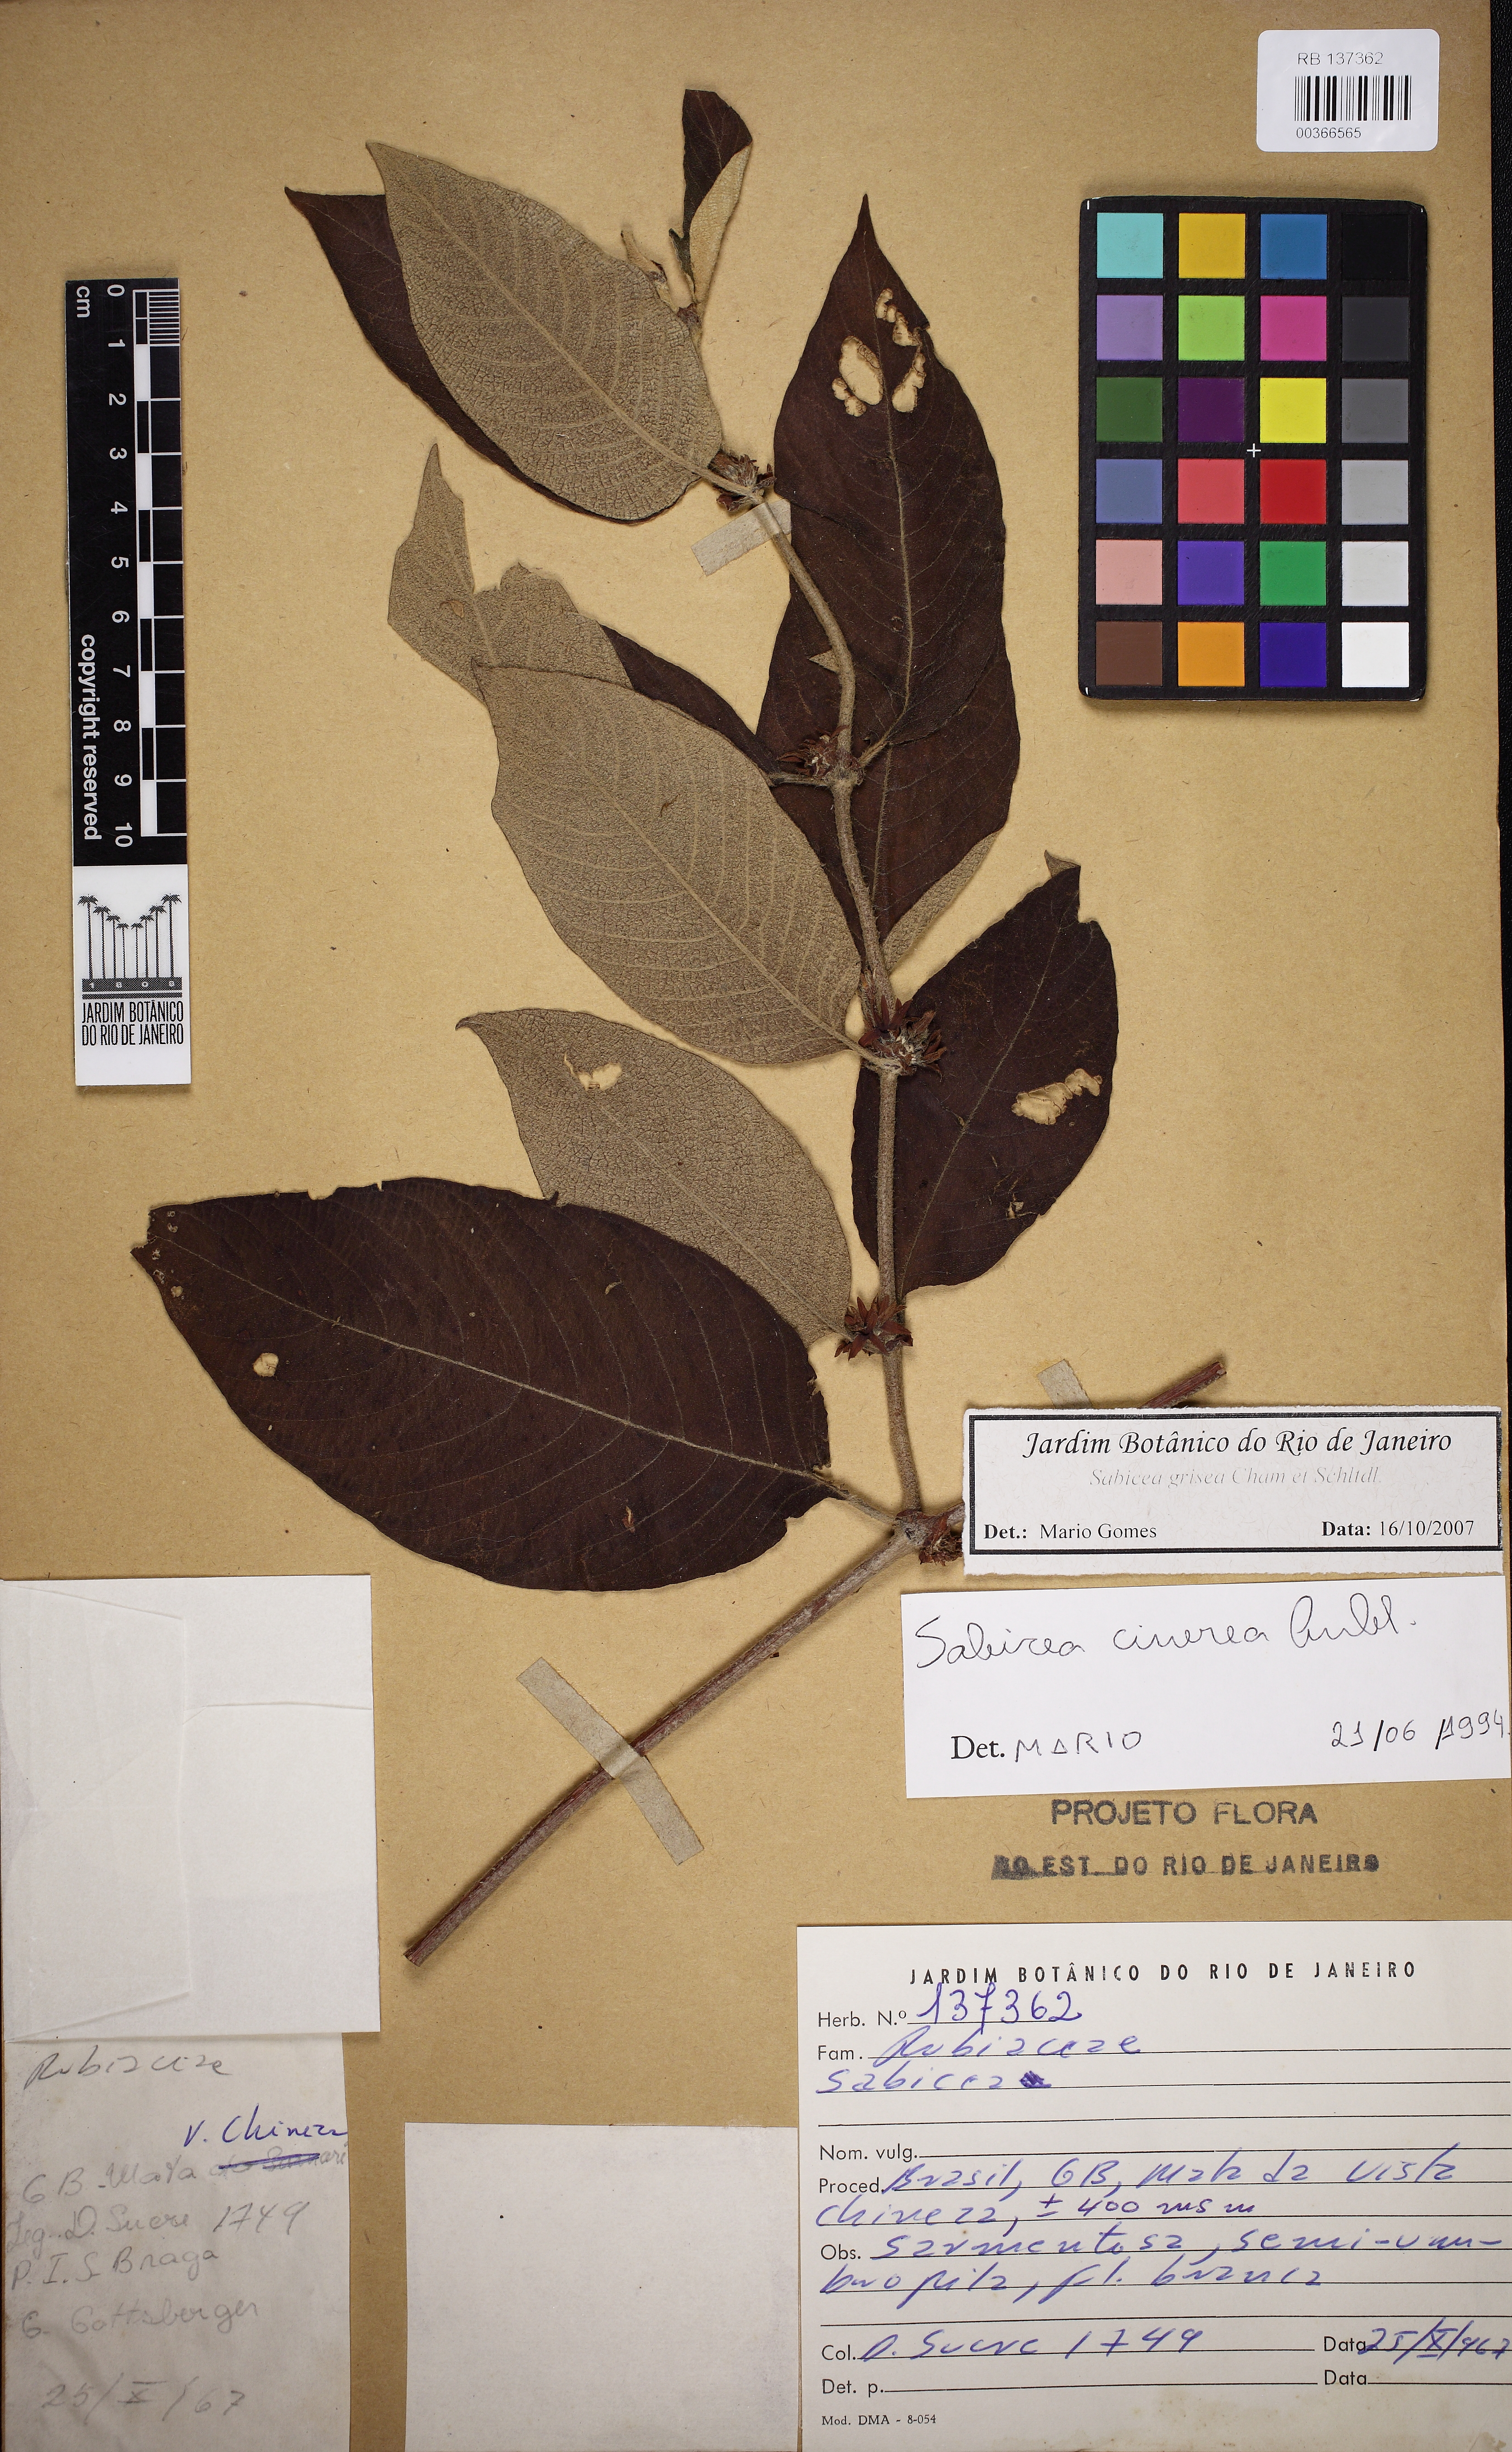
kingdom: Plantae
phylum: Tracheophyta
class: Magnoliopsida
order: Gentianales
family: Rubiaceae
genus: Sabicea
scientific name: Sabicea grisea
